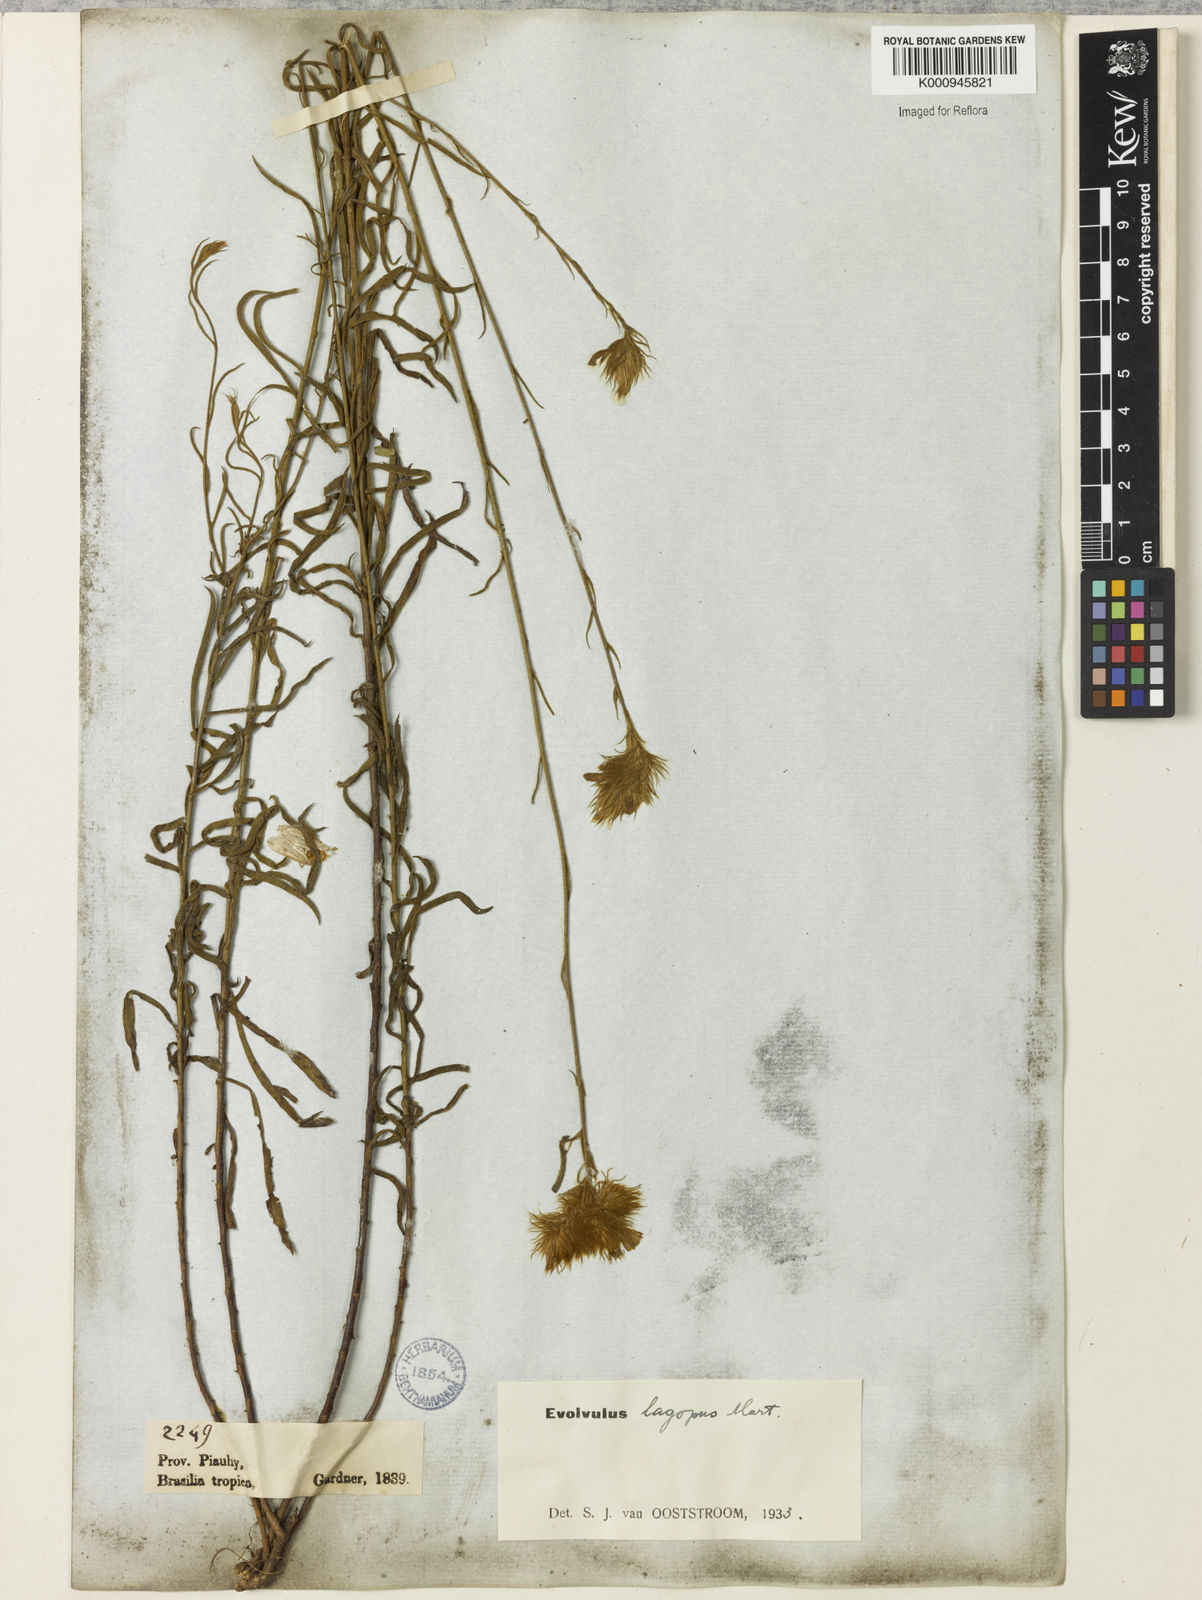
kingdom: Plantae
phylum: Tracheophyta
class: Magnoliopsida
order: Solanales
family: Convolvulaceae
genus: Evolvulus
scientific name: Evolvulus lagopus
